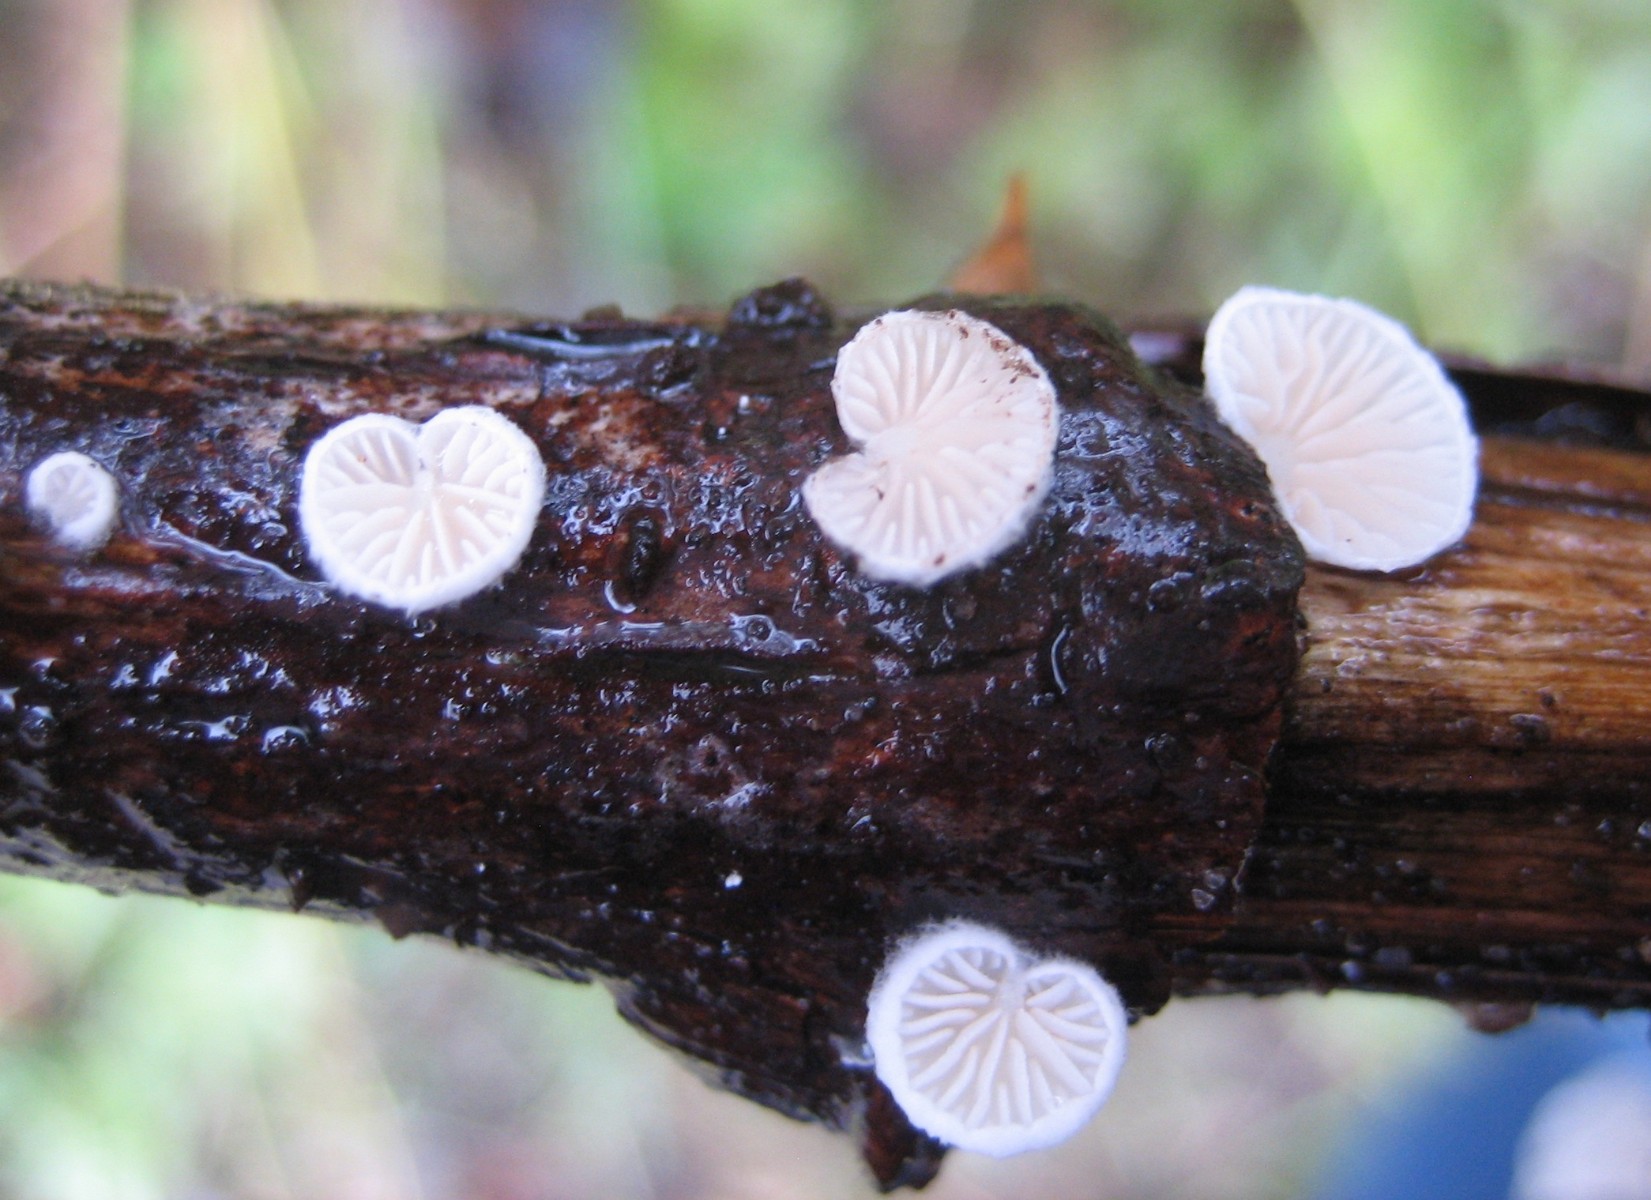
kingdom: Fungi
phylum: Basidiomycota
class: Agaricomycetes
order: Agaricales
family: Crepidotaceae
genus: Crepidotus
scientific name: Crepidotus
